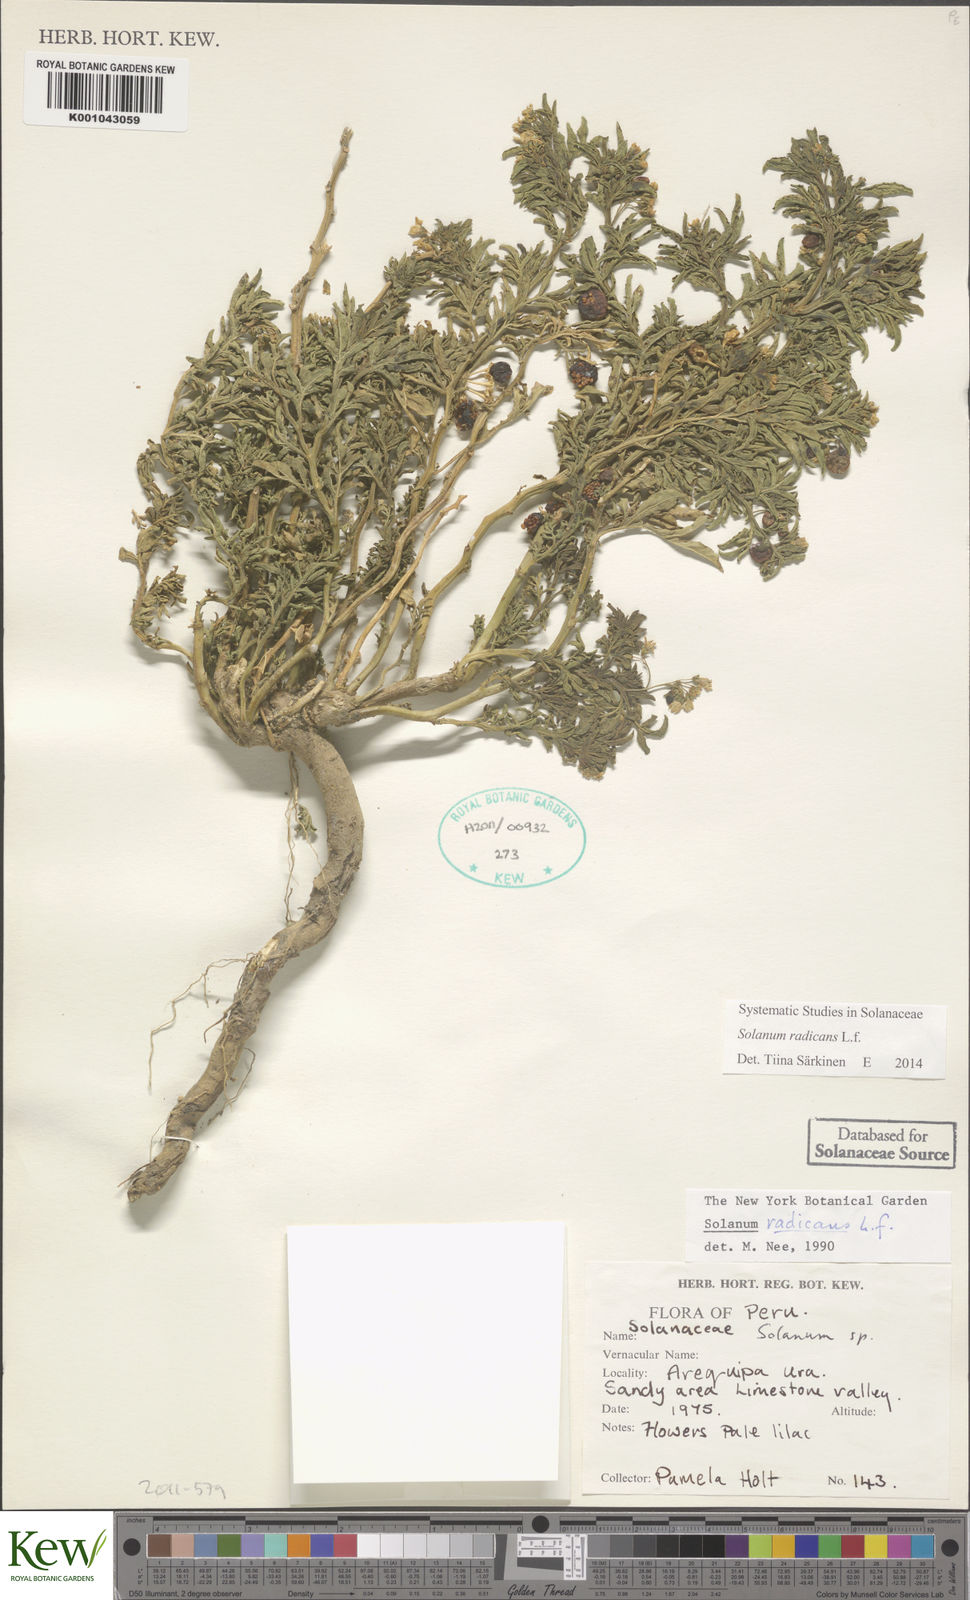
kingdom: Plantae
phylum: Tracheophyta
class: Magnoliopsida
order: Solanales
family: Solanaceae
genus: Solanum
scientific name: Solanum radicans
